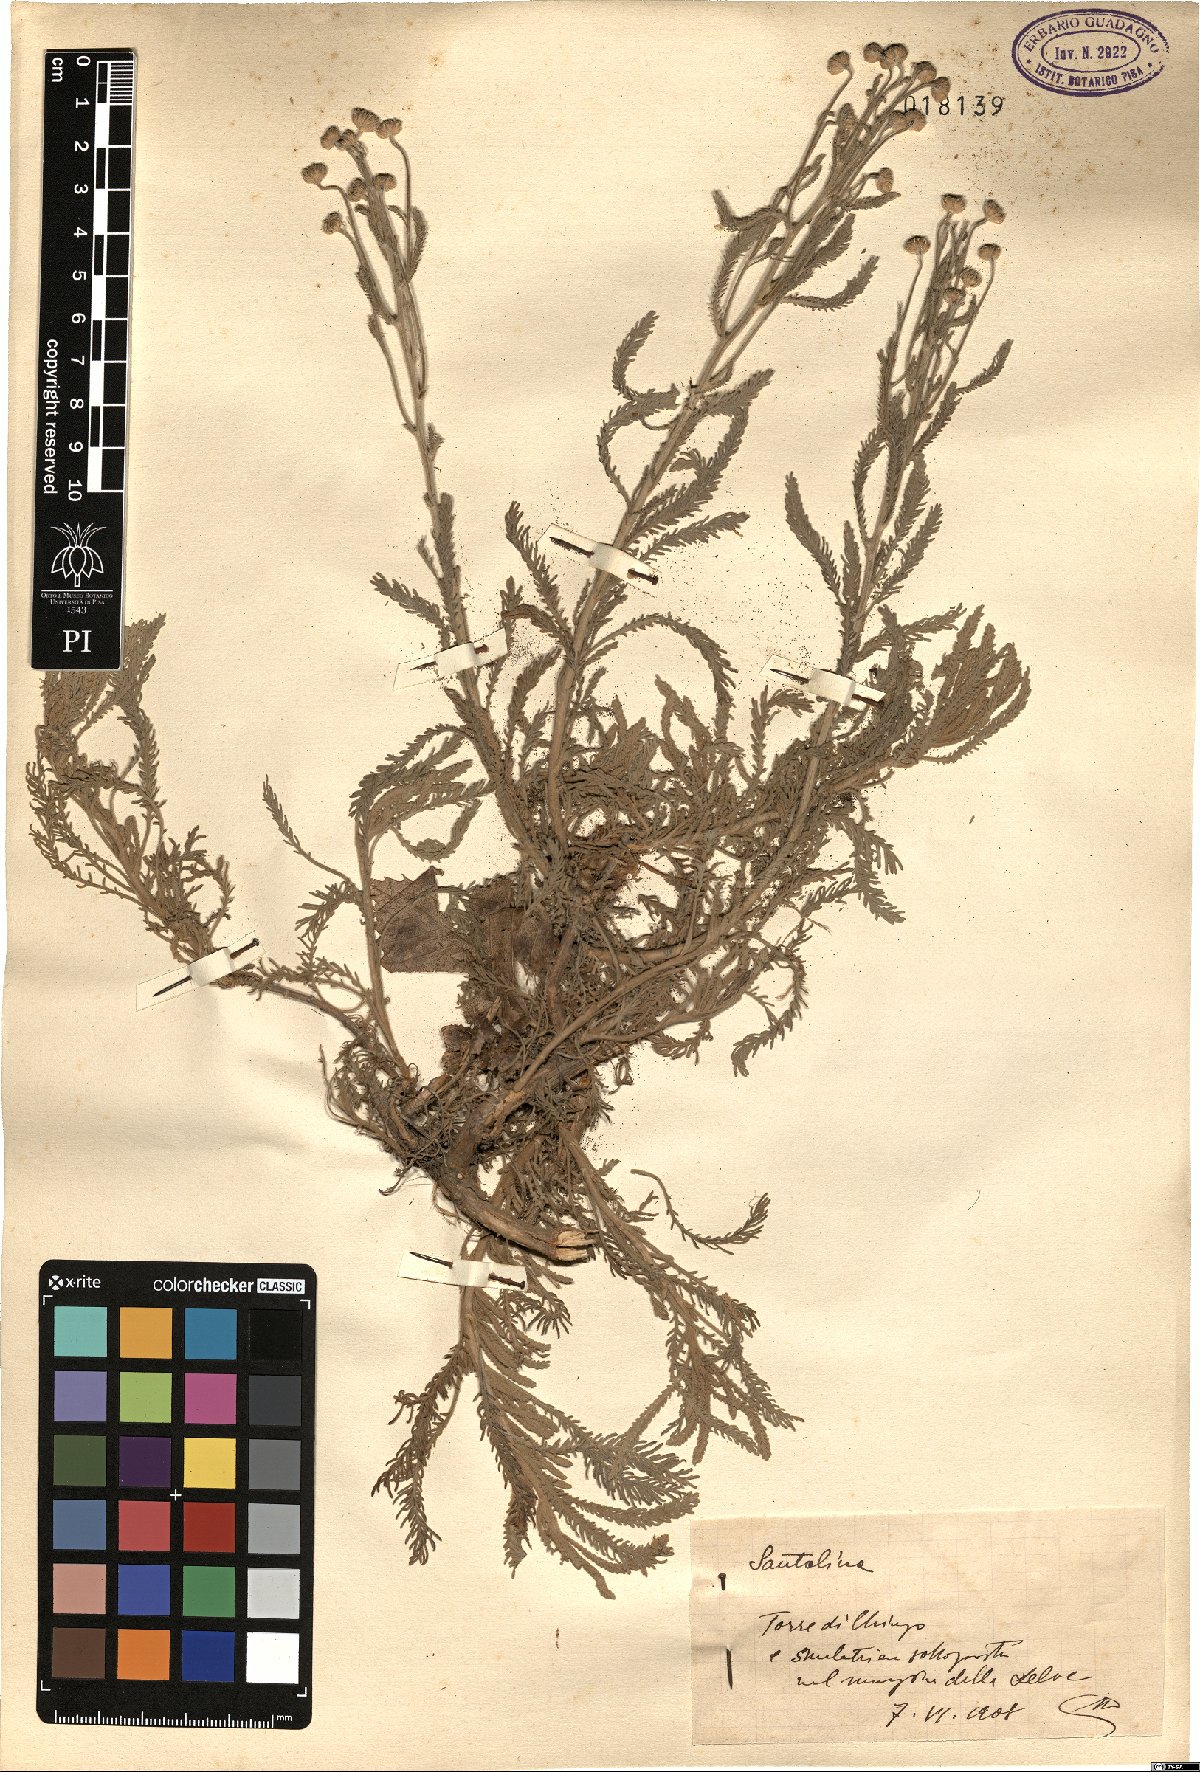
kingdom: Plantae
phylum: Tracheophyta
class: Magnoliopsida
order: Asterales
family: Asteraceae
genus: Santolina
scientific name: Santolina
